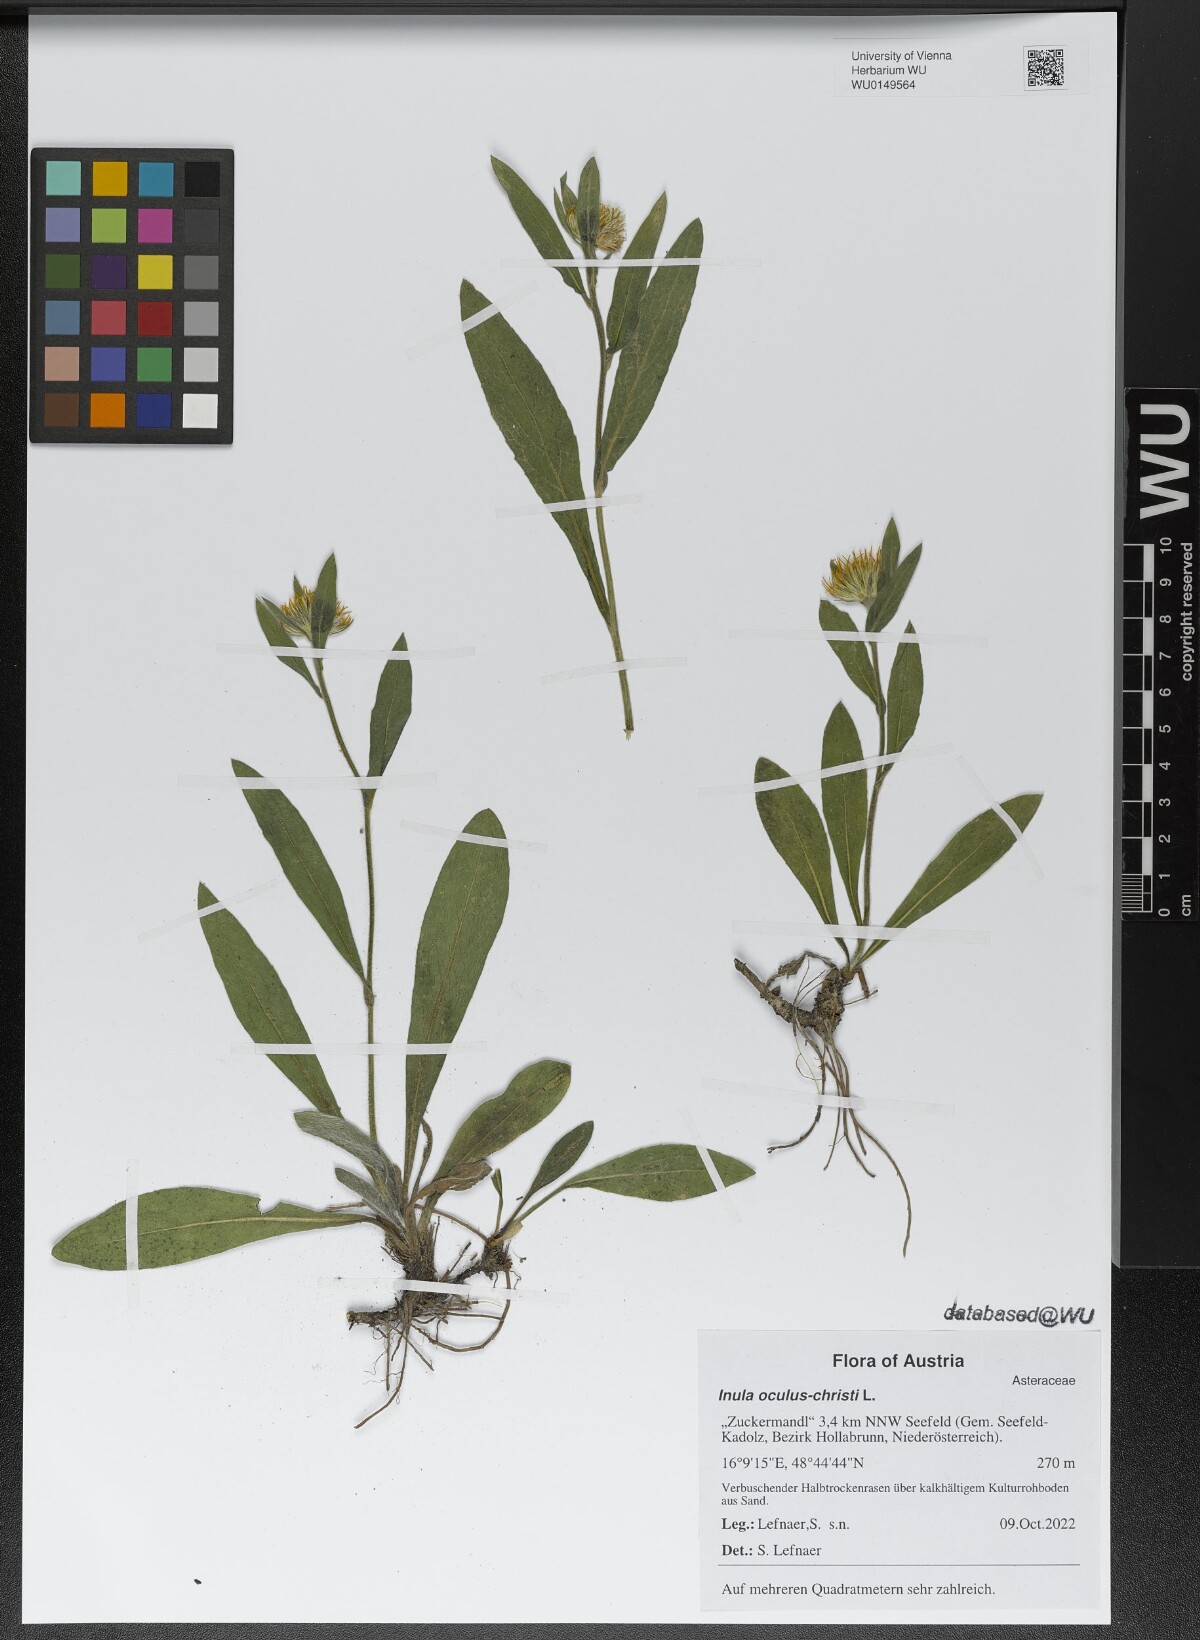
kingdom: Plantae
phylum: Tracheophyta
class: Magnoliopsida
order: Asterales
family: Asteraceae
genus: Pentanema
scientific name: Pentanema oculus-christi
